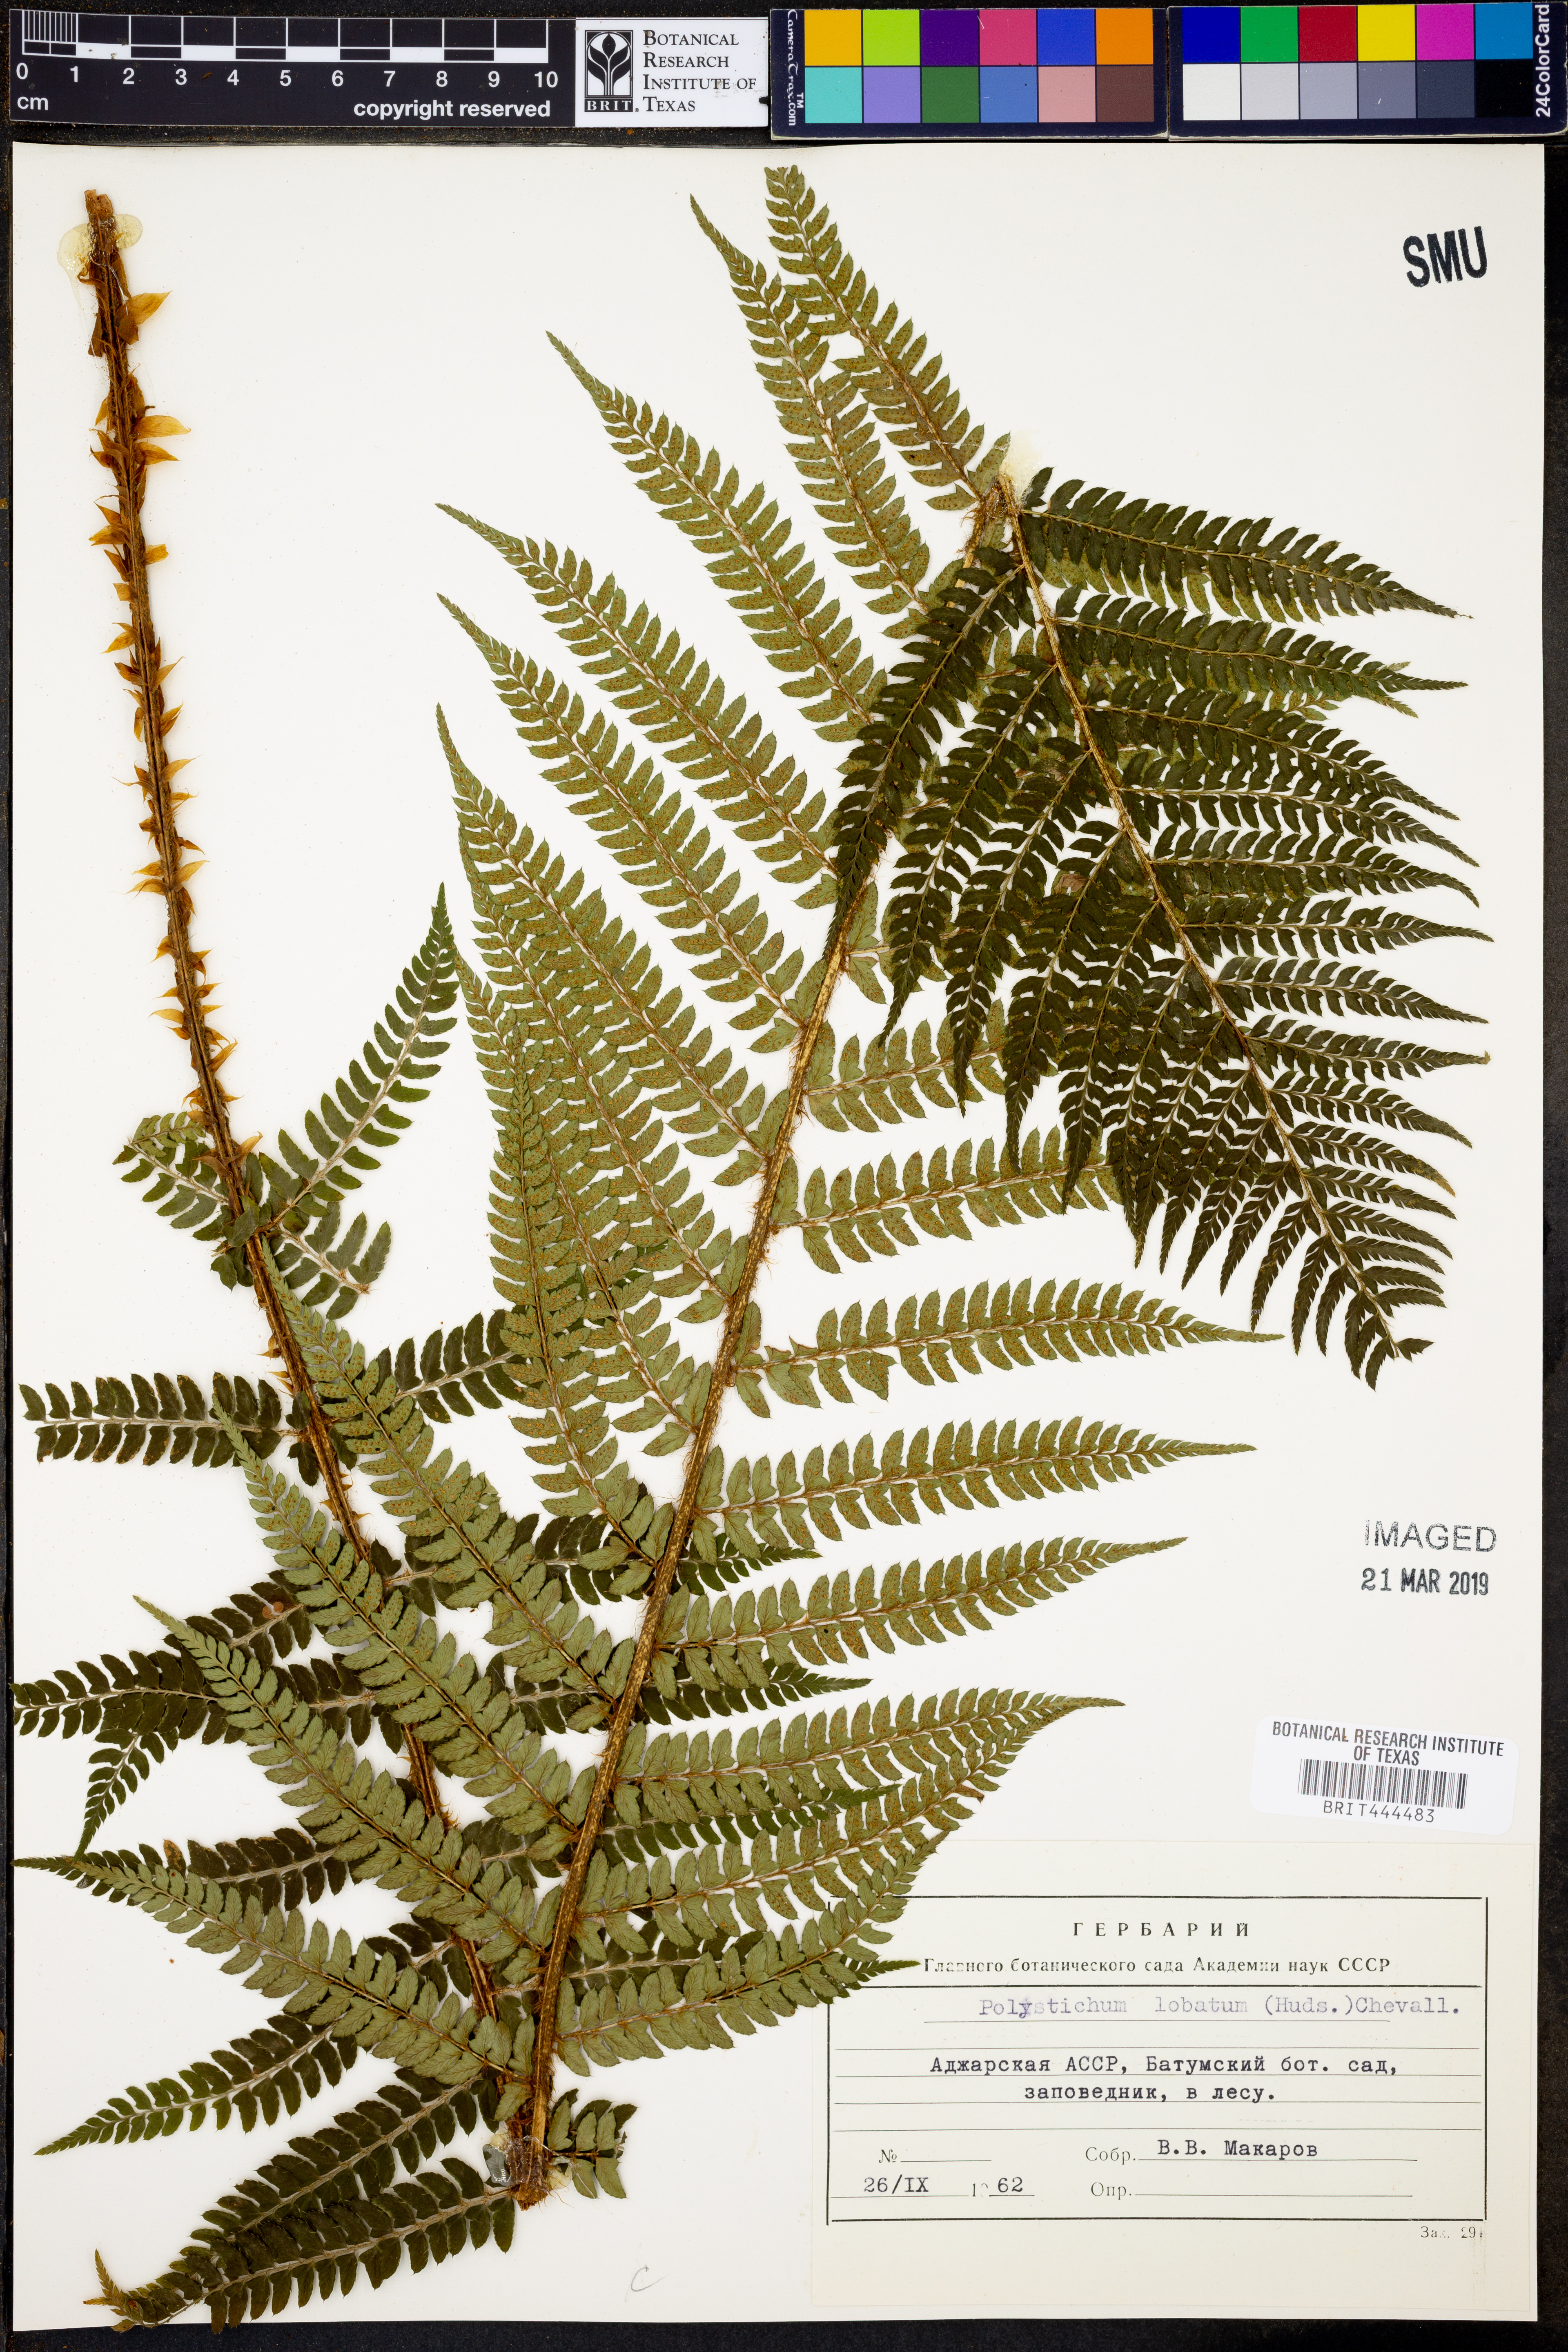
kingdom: Plantae
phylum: Tracheophyta
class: Polypodiopsida
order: Polypodiales
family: Dryopteridaceae
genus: Polystichum
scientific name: Polystichum aculeatum
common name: Hard shield-fern
